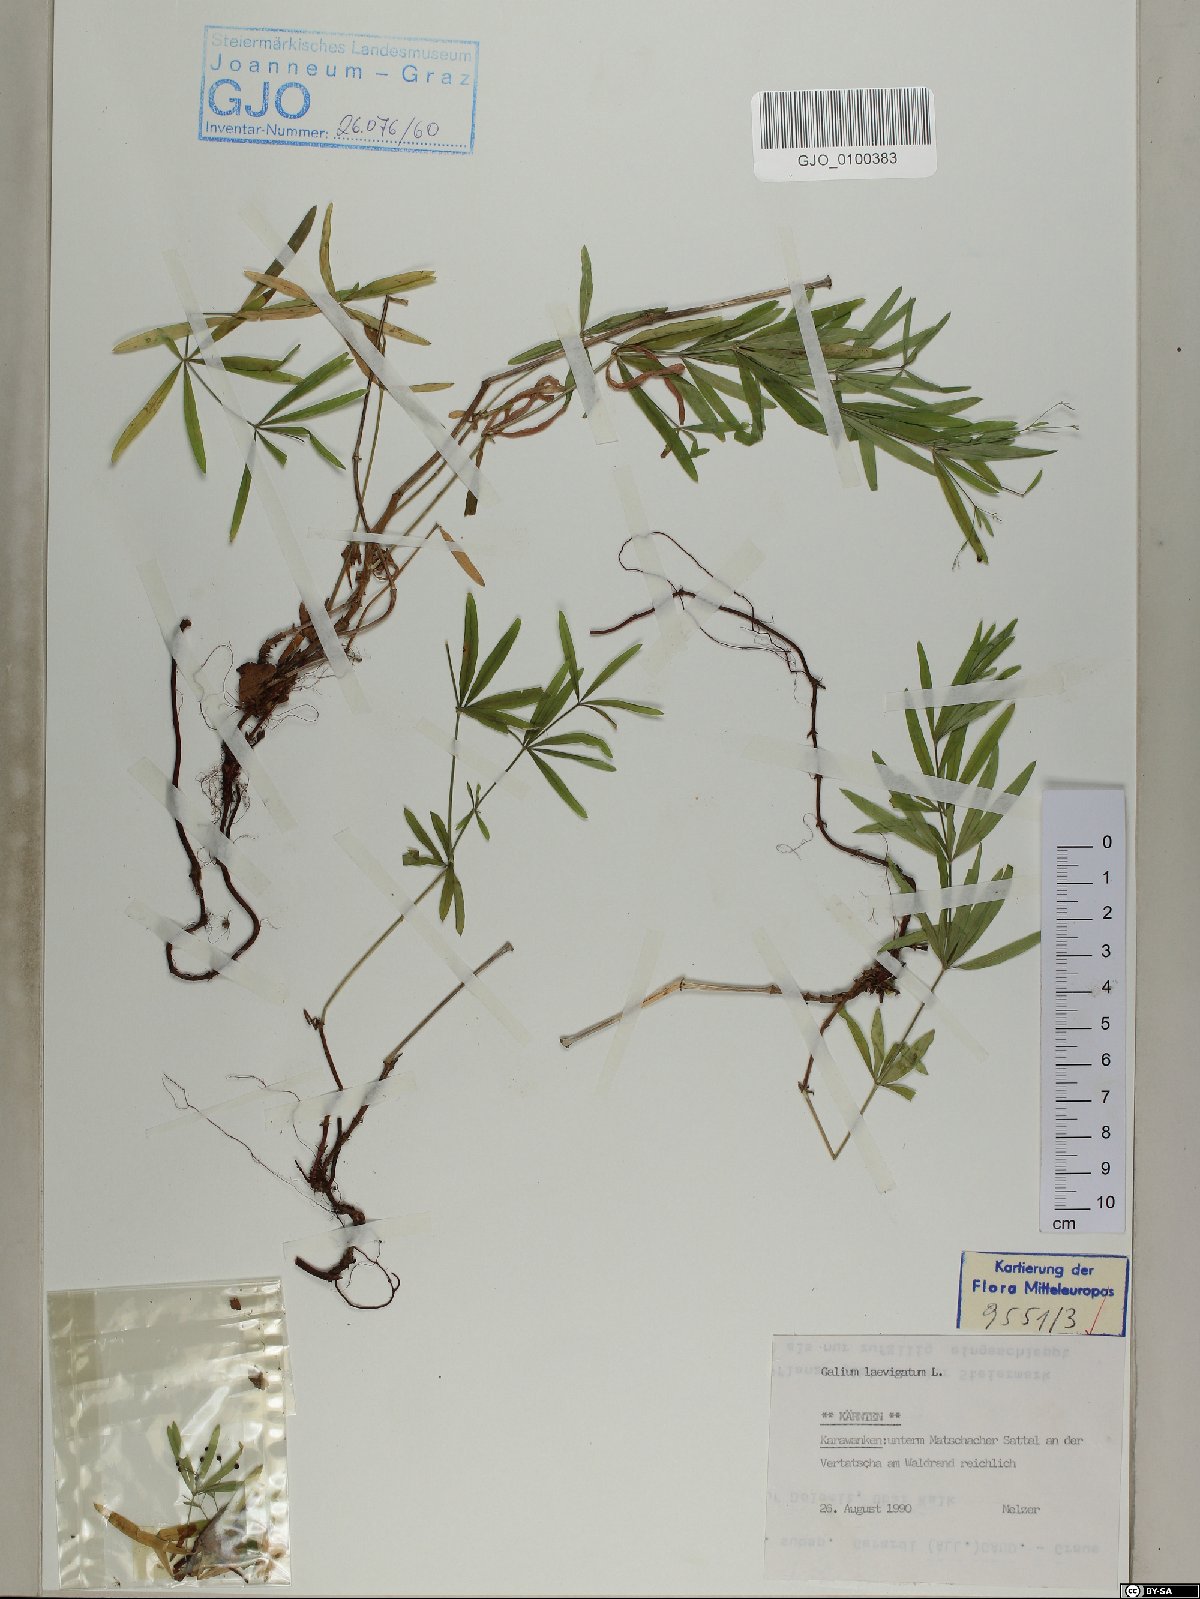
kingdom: Plantae
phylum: Tracheophyta
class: Magnoliopsida
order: Gentianales
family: Rubiaceae
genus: Galium
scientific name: Galium laevigatum
